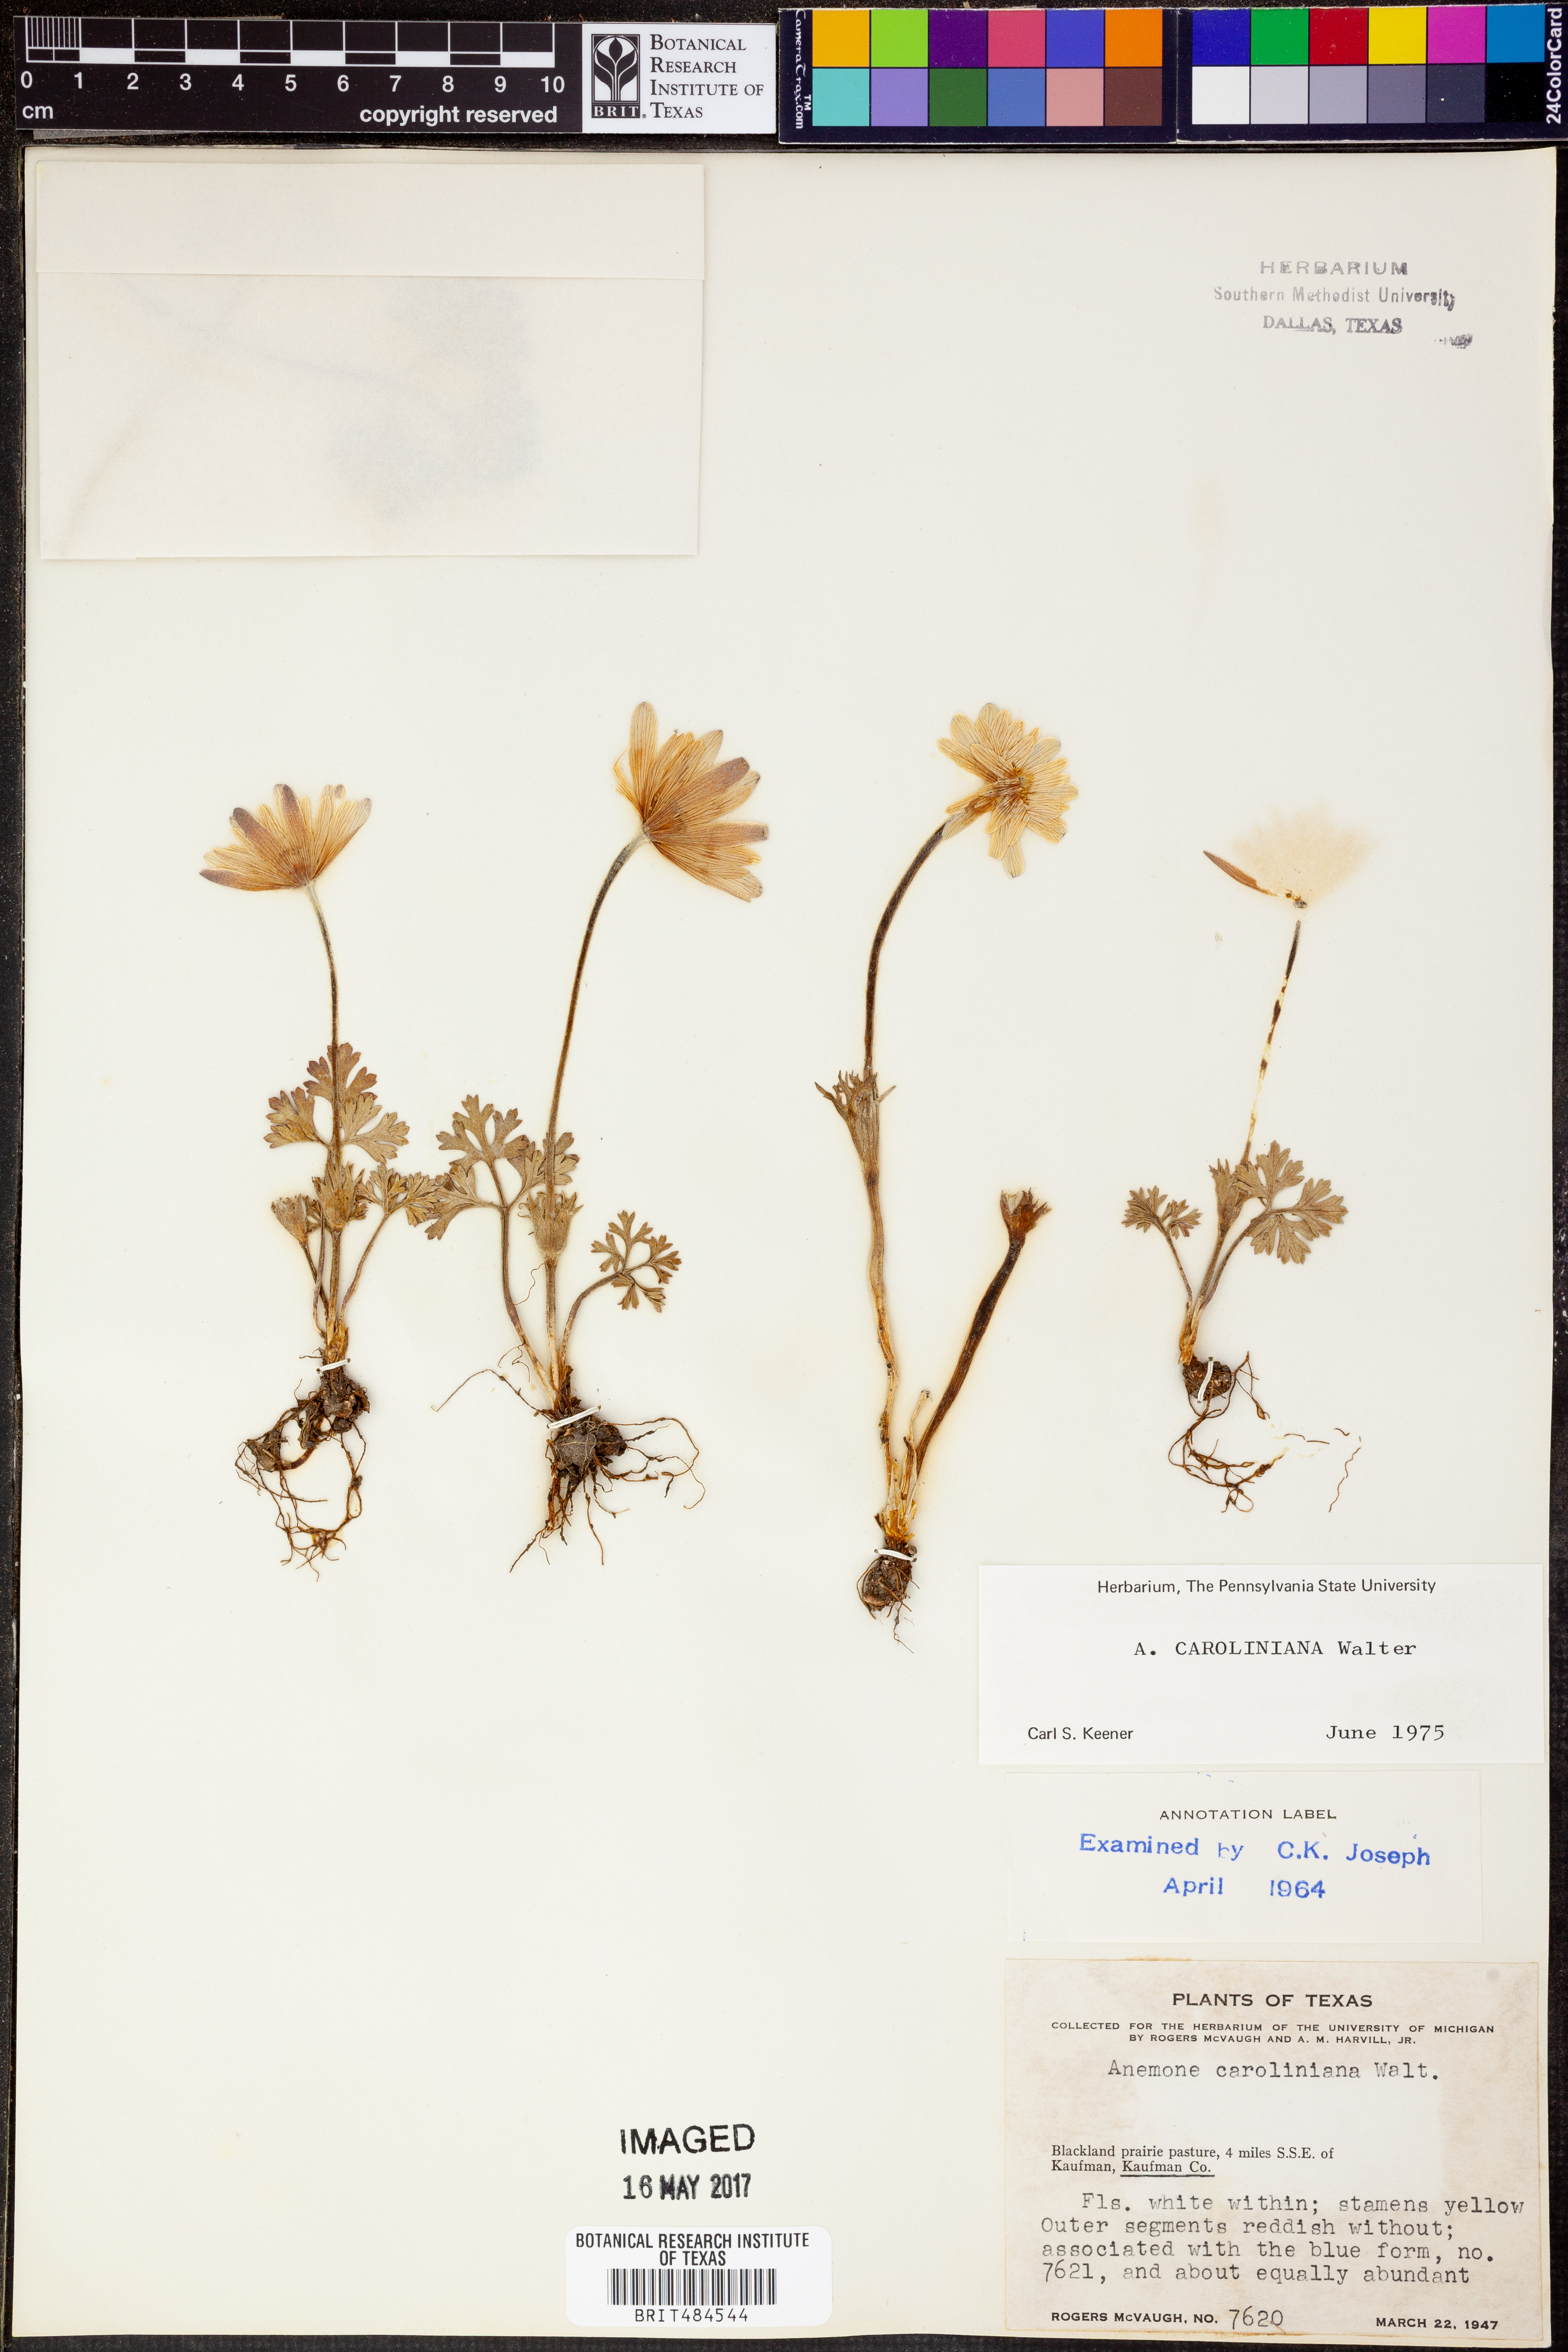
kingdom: Plantae
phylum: Tracheophyta
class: Magnoliopsida
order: Ranunculales
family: Ranunculaceae
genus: Anemone
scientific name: Anemone caroliniana
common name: Carolina anemone
